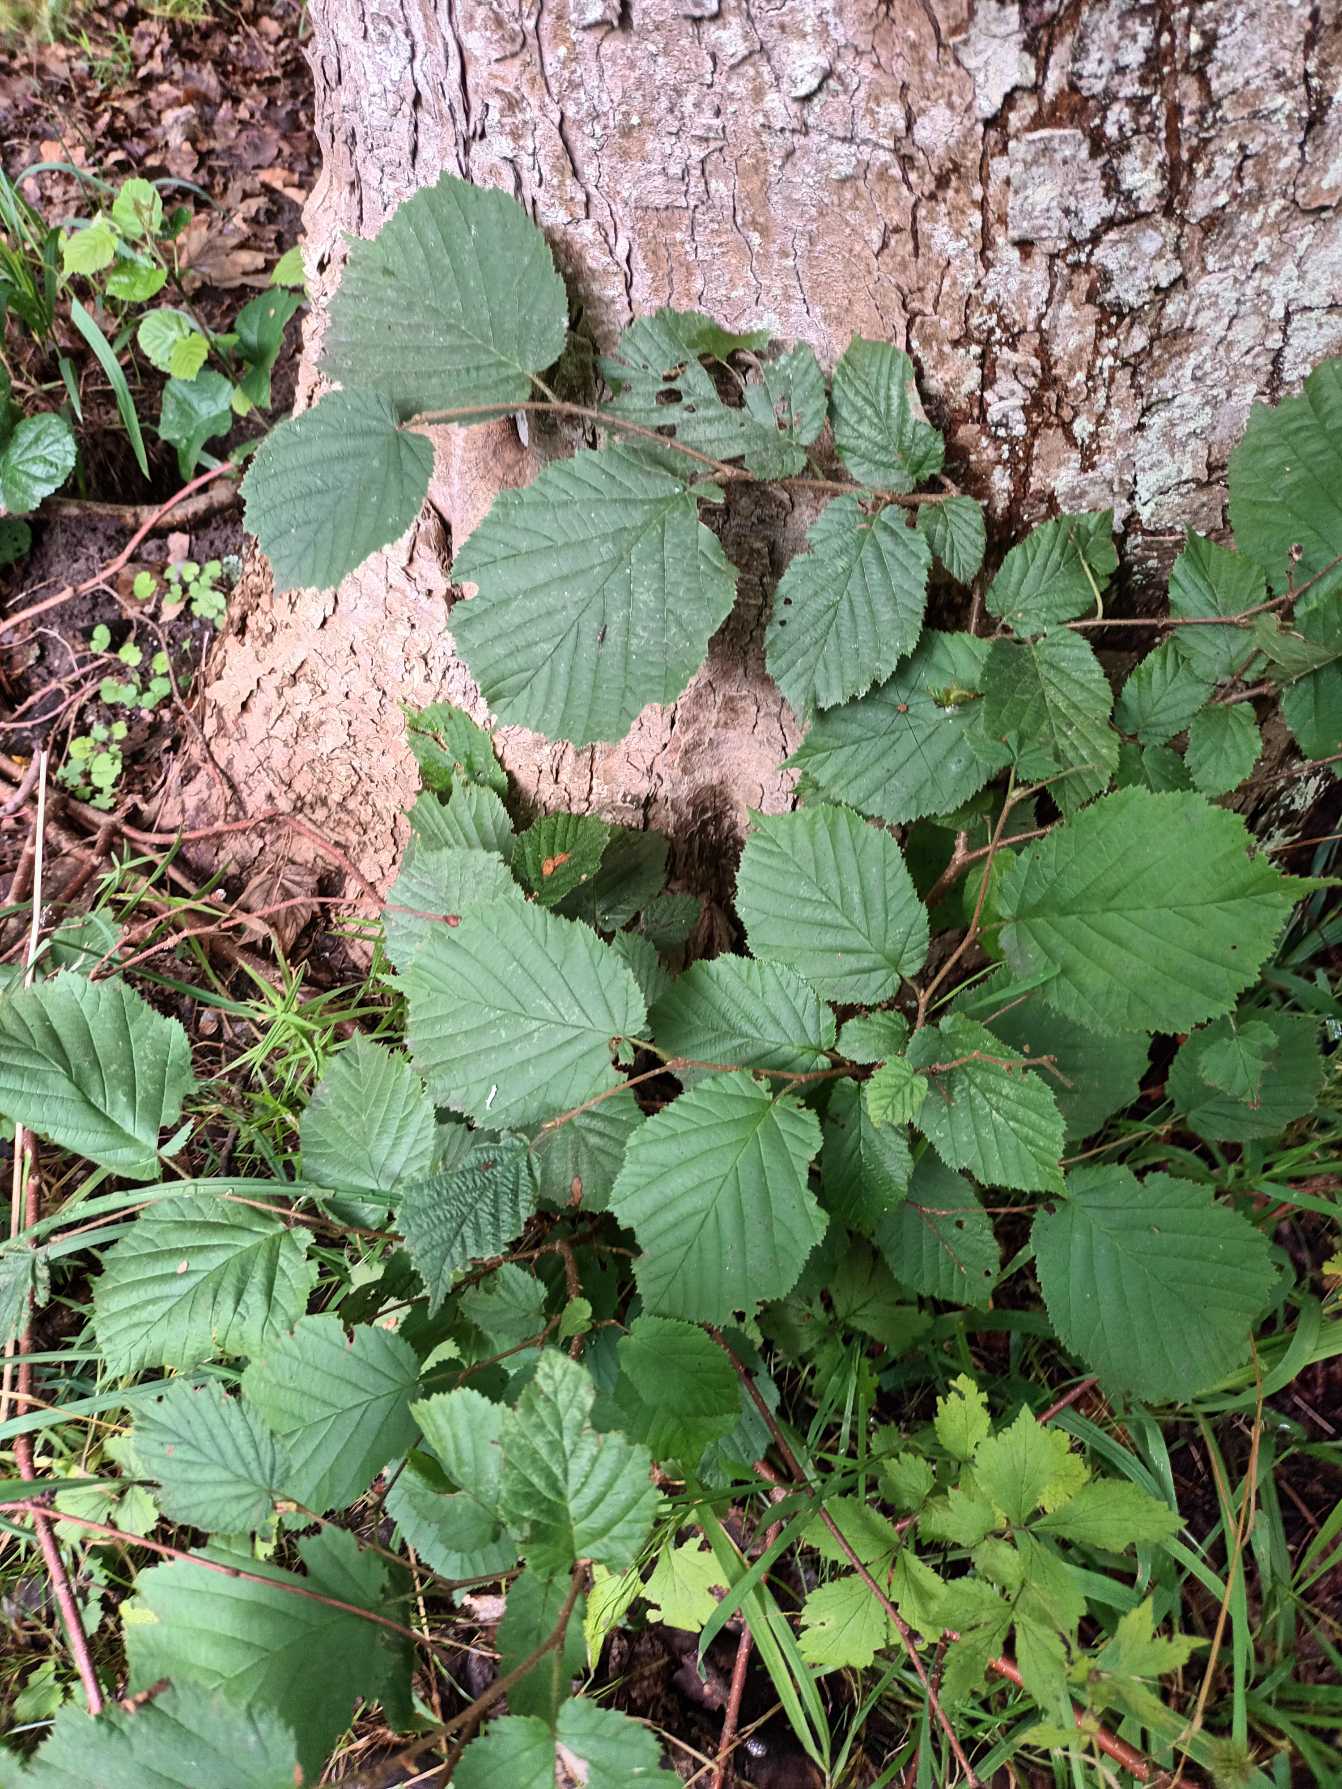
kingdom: Plantae
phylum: Tracheophyta
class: Magnoliopsida
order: Fagales
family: Betulaceae
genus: Corylus
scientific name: Corylus avellana
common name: Hassel
